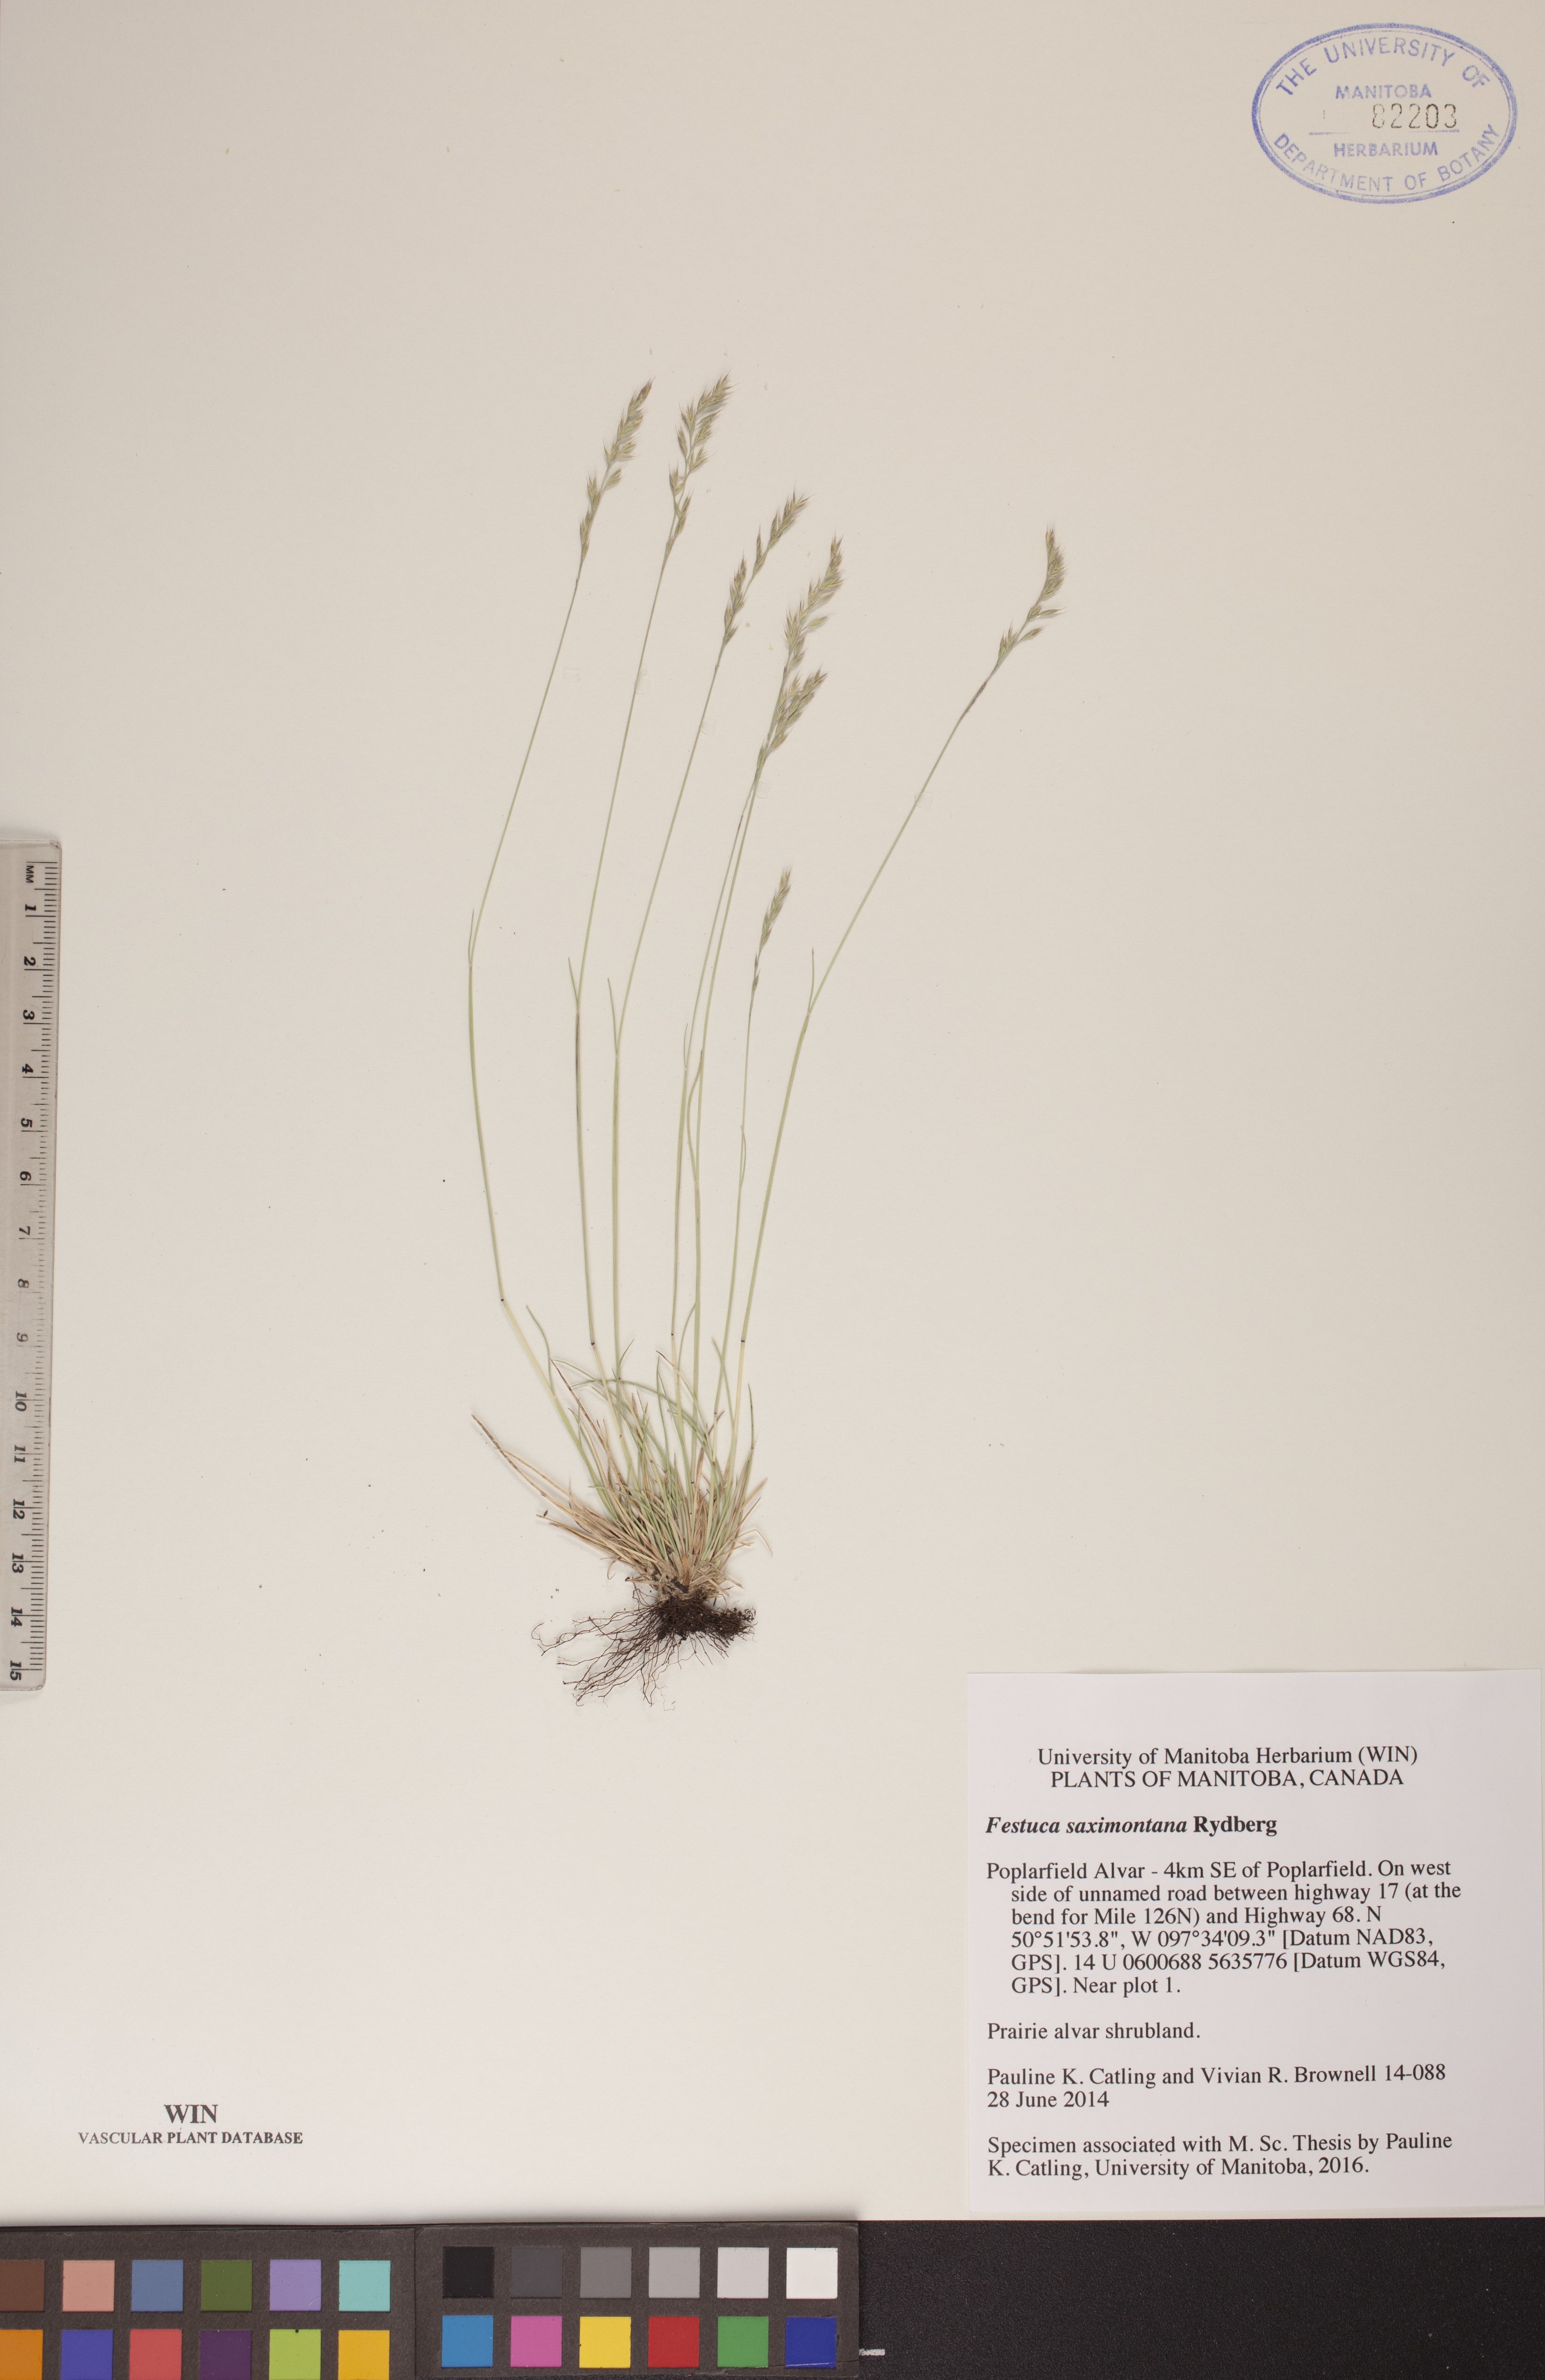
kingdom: Plantae
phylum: Tracheophyta
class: Liliopsida
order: Poales
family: Poaceae
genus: Festuca
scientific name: Festuca saximontana
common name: Mountain fescue
